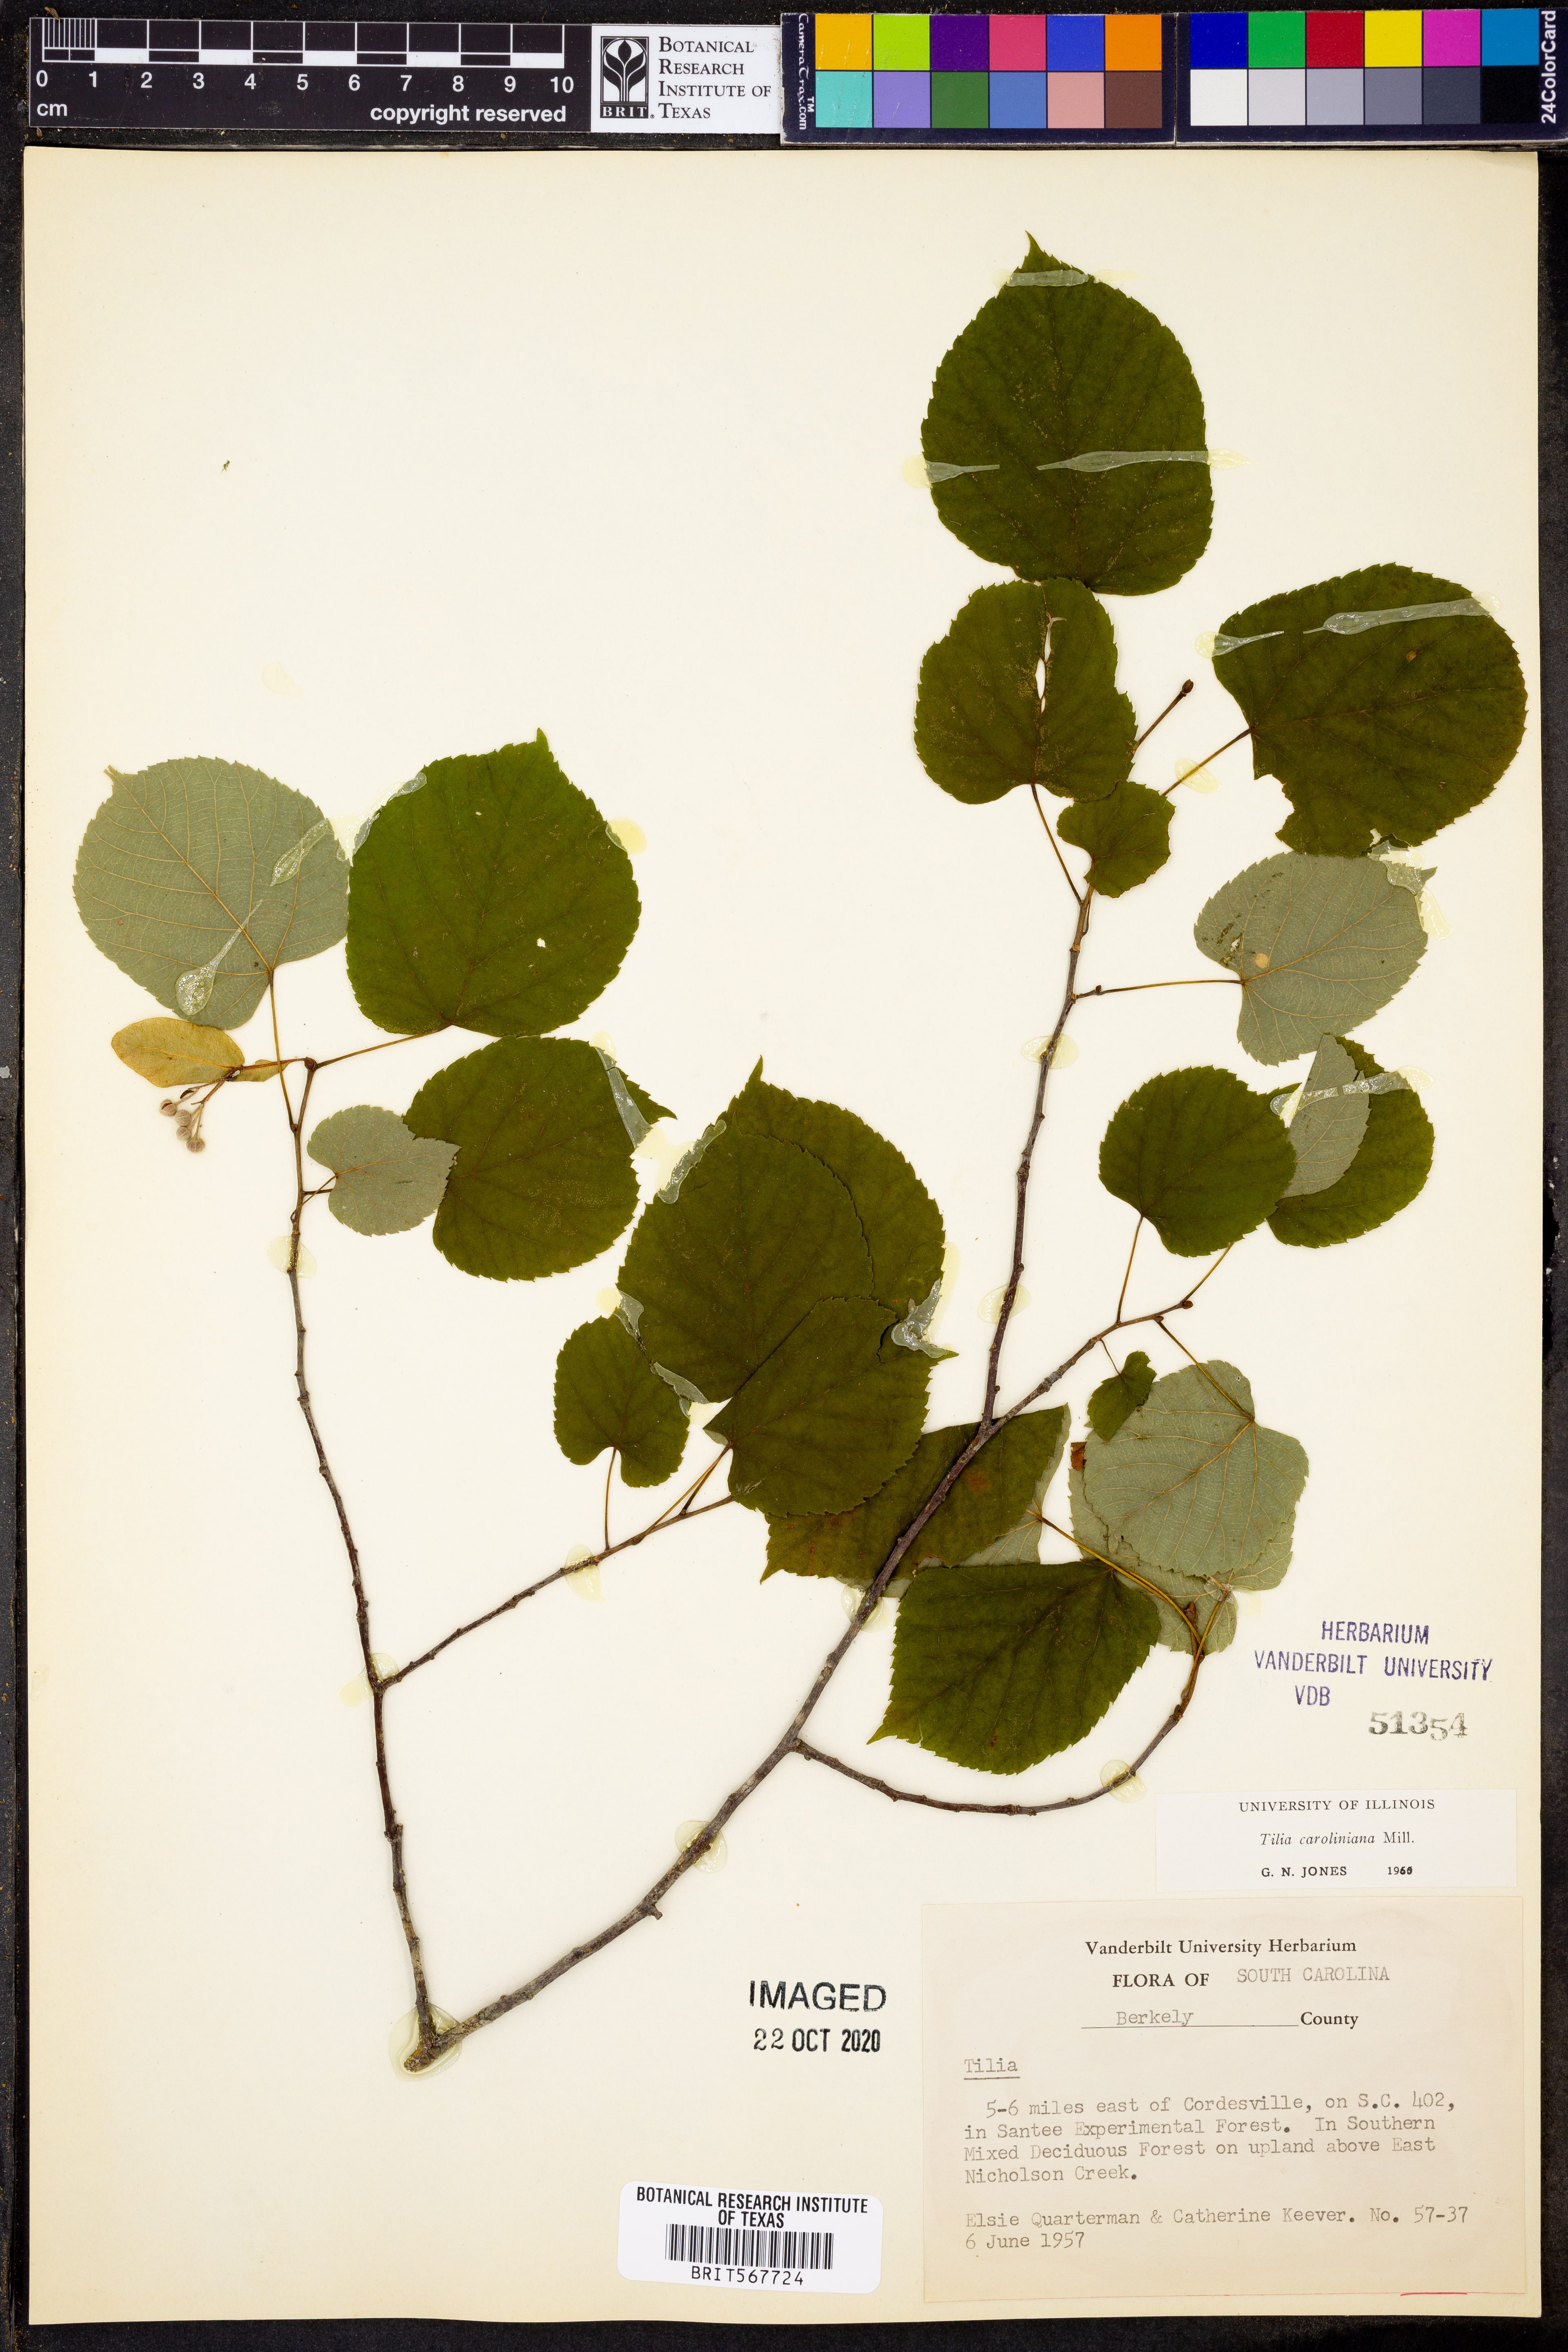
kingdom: Plantae
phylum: Tracheophyta
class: Magnoliopsida
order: Malvales
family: Malvaceae
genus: Tilia
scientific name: Tilia americana
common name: Basswood
